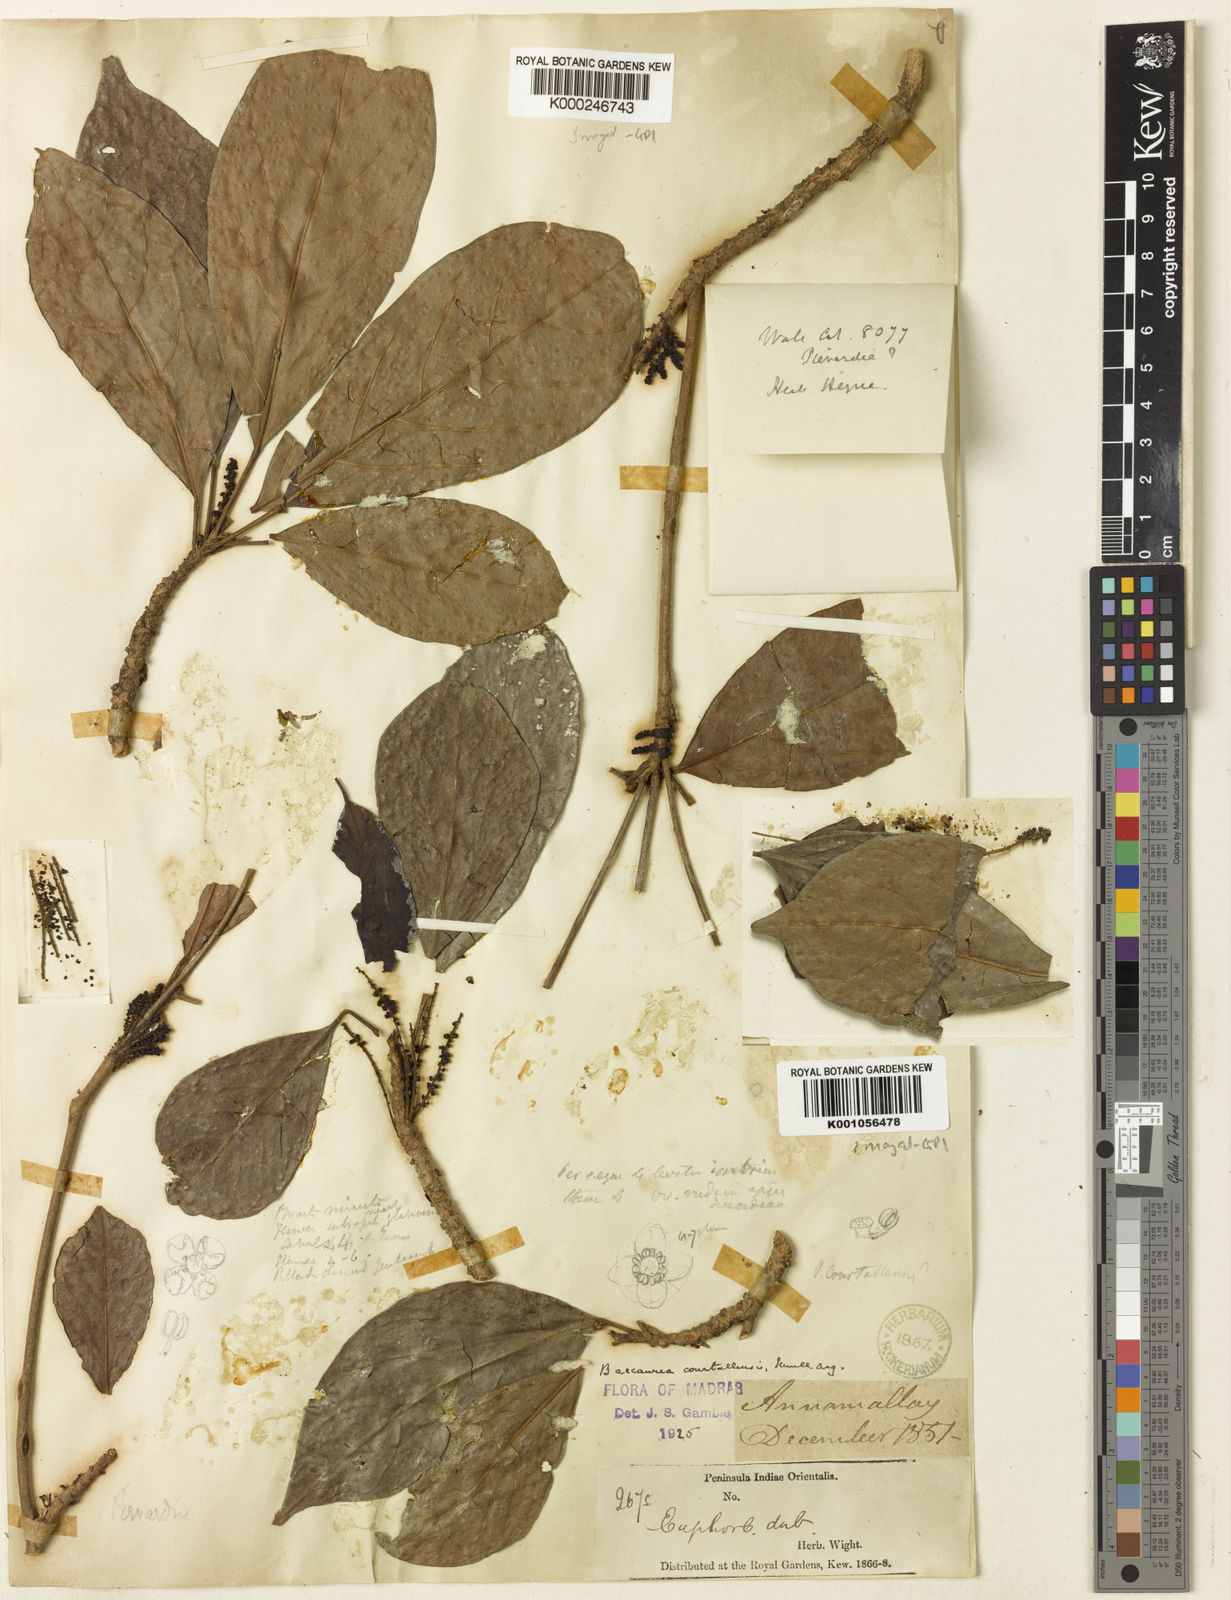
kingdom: Plantae
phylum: Tracheophyta
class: Magnoliopsida
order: Malpighiales
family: Phyllanthaceae
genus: Baccaurea
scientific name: Baccaurea
